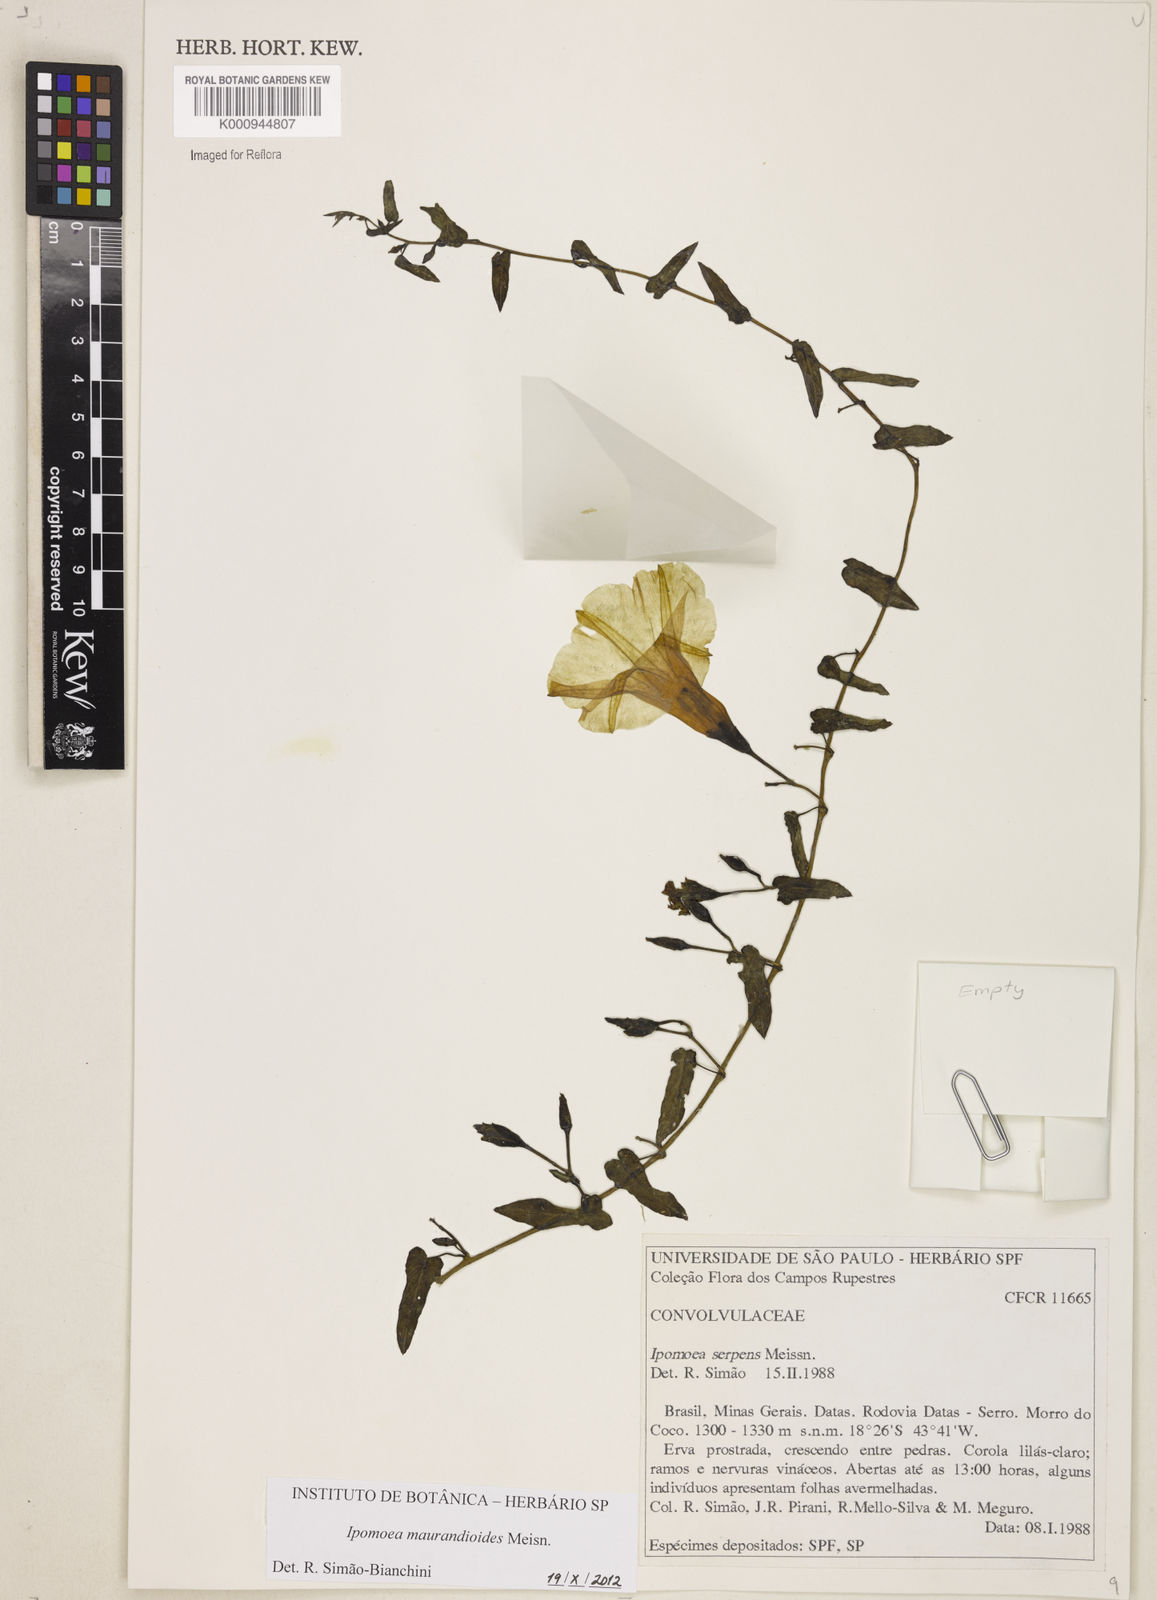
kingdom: Plantae
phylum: Tracheophyta
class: Magnoliopsida
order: Solanales
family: Convolvulaceae
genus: Ipomoea
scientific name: Ipomoea maurandioides
